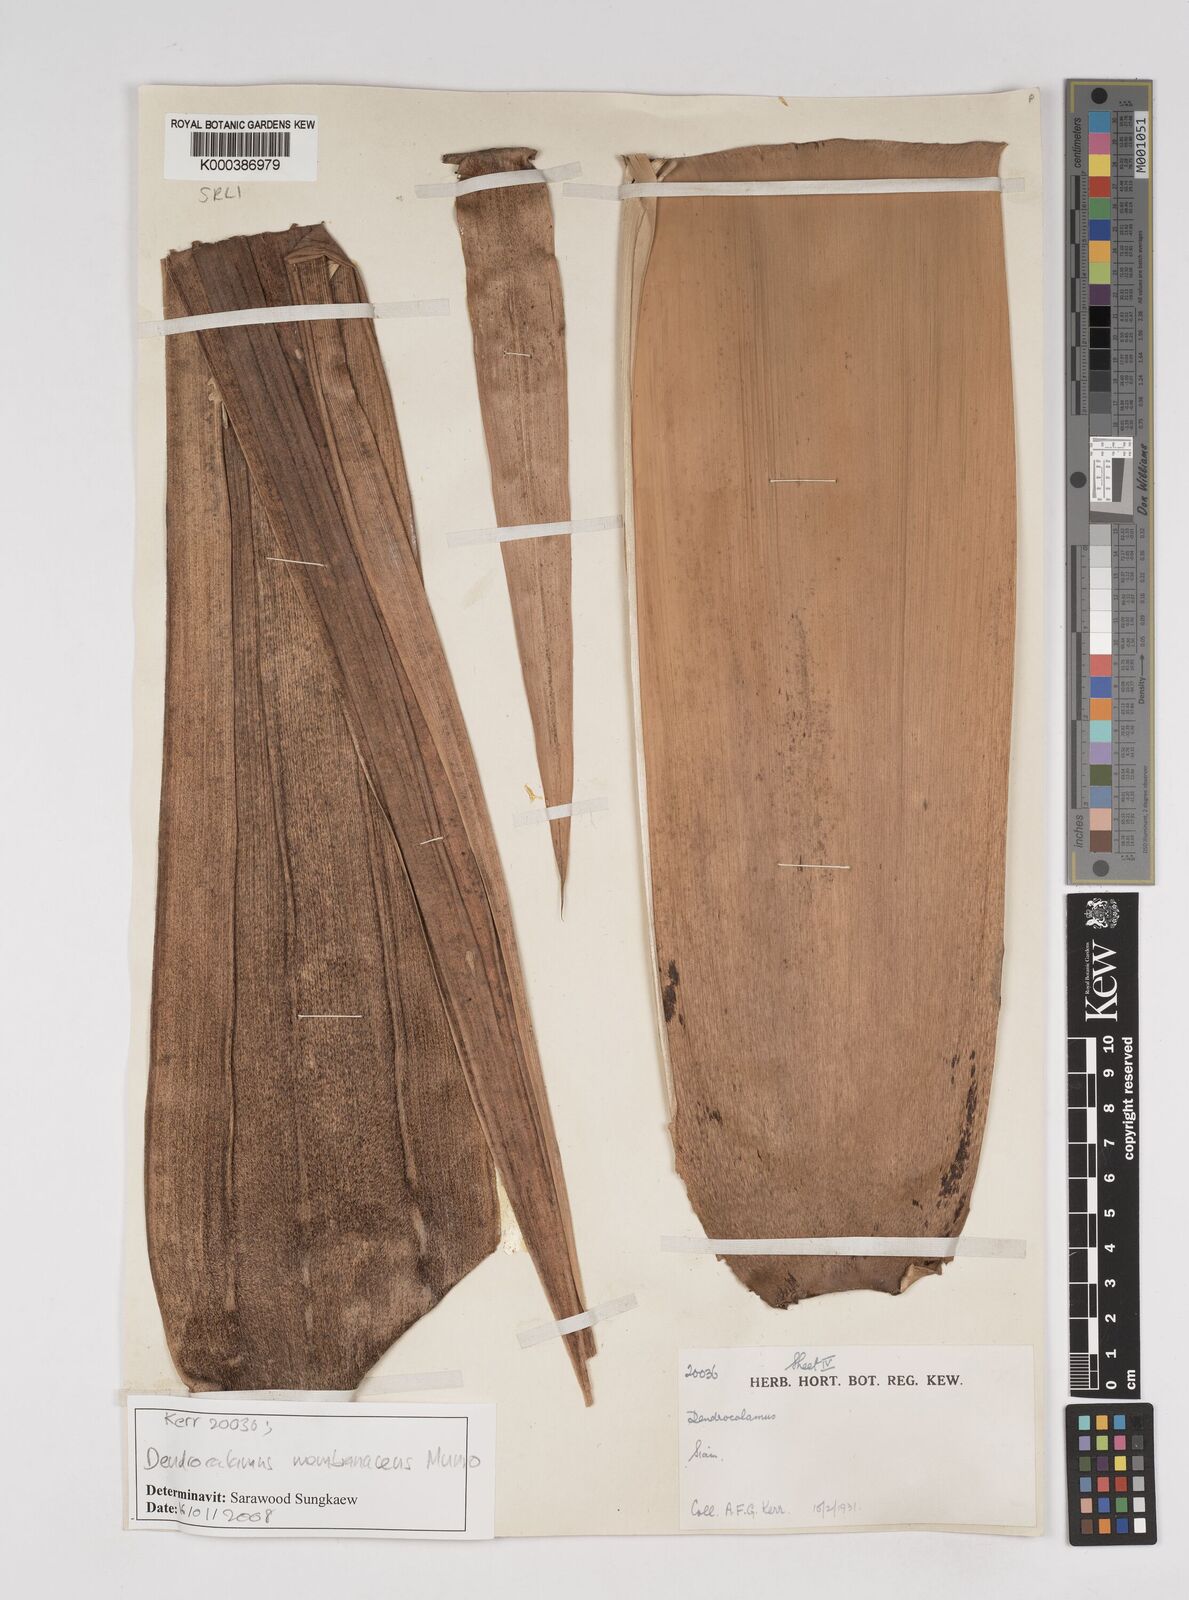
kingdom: Plantae
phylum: Tracheophyta
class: Liliopsida
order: Poales
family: Poaceae
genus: Dendrocalamus
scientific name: Dendrocalamus membranaceus
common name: White bamboo
